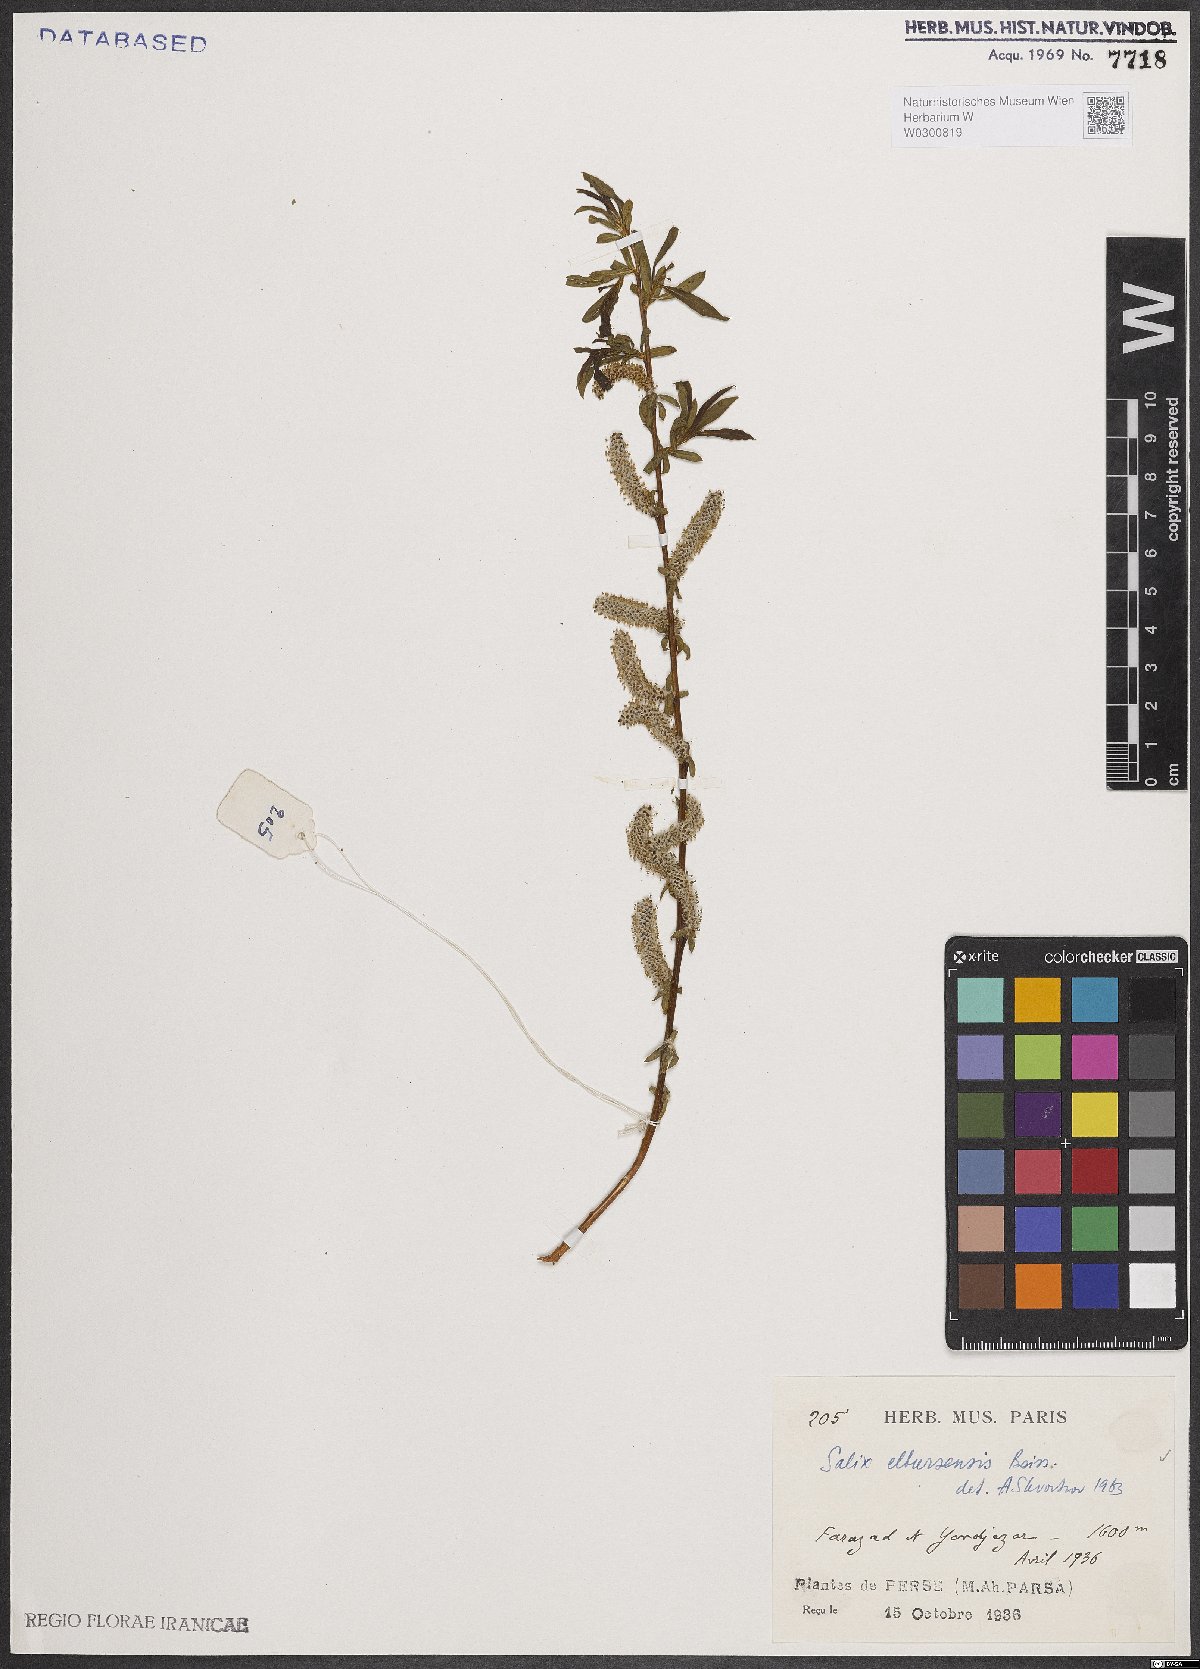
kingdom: Plantae
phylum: Tracheophyta
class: Magnoliopsida
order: Malpighiales
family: Salicaceae
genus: Salix
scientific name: Salix elbursensis
